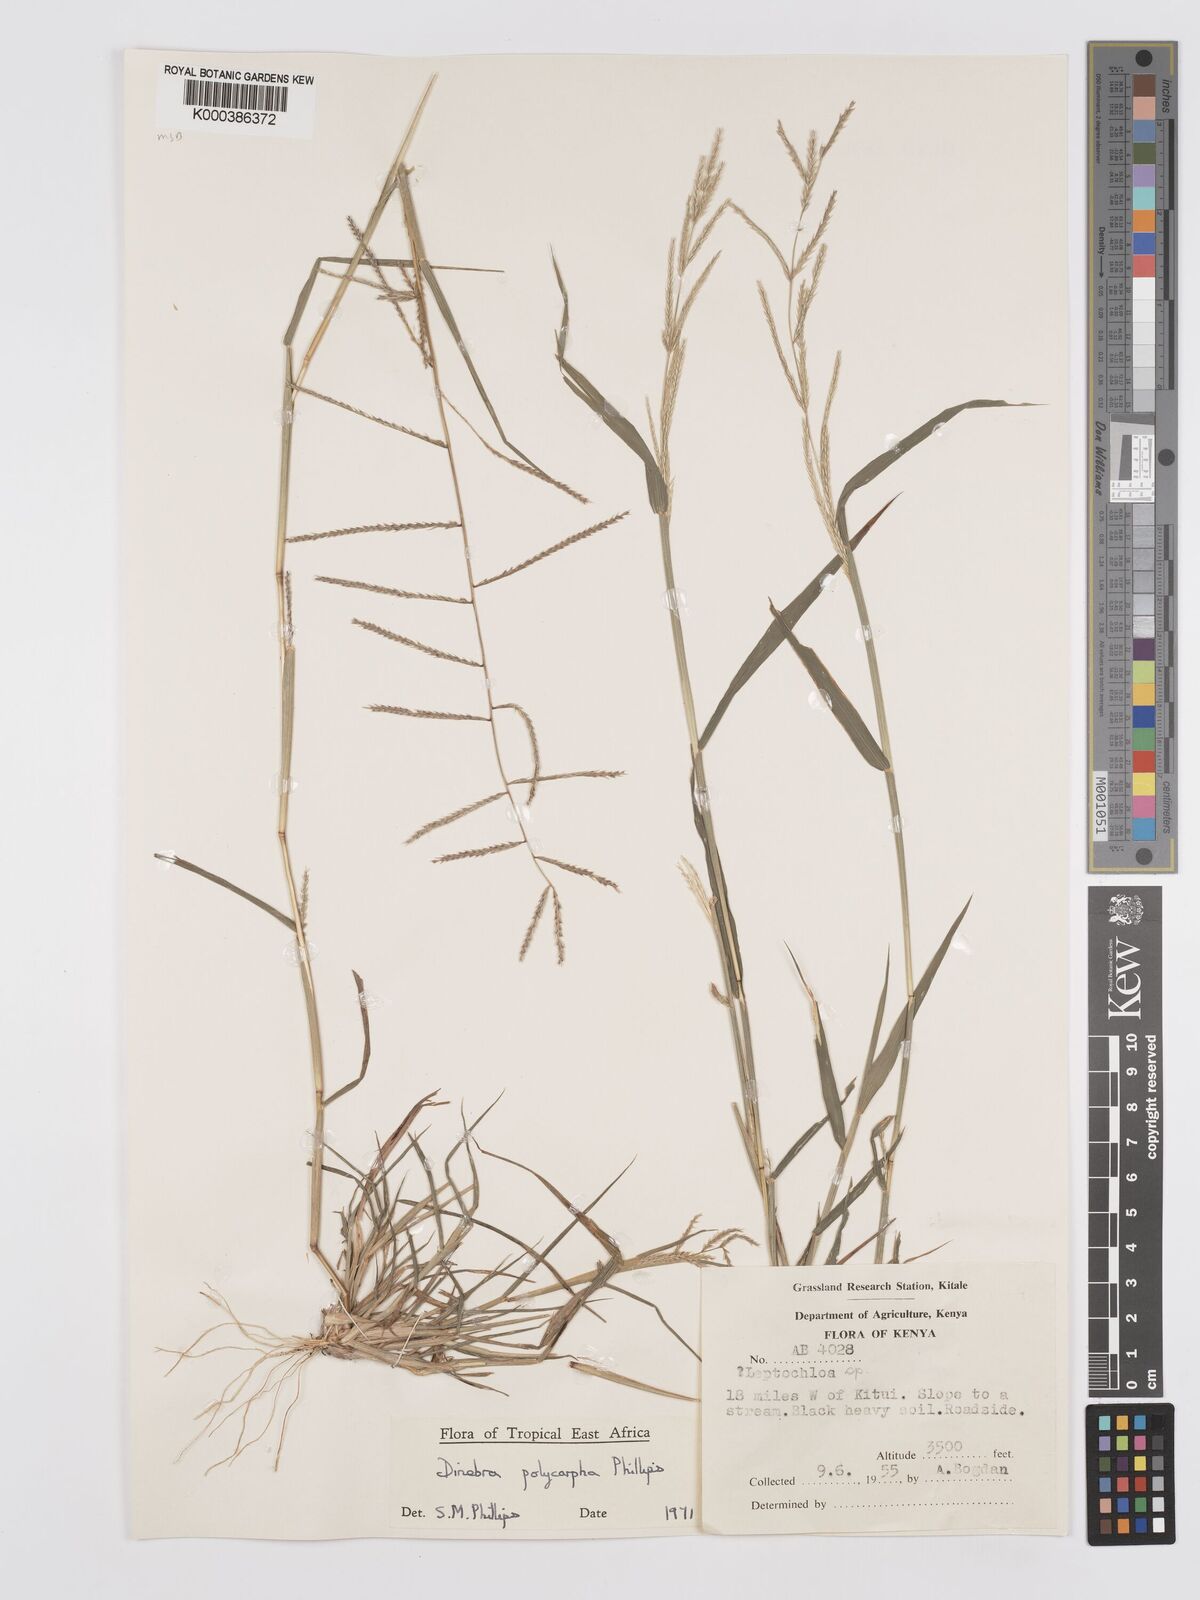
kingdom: Plantae
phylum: Tracheophyta
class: Liliopsida
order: Poales
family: Poaceae
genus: Dinebra
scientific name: Dinebra
